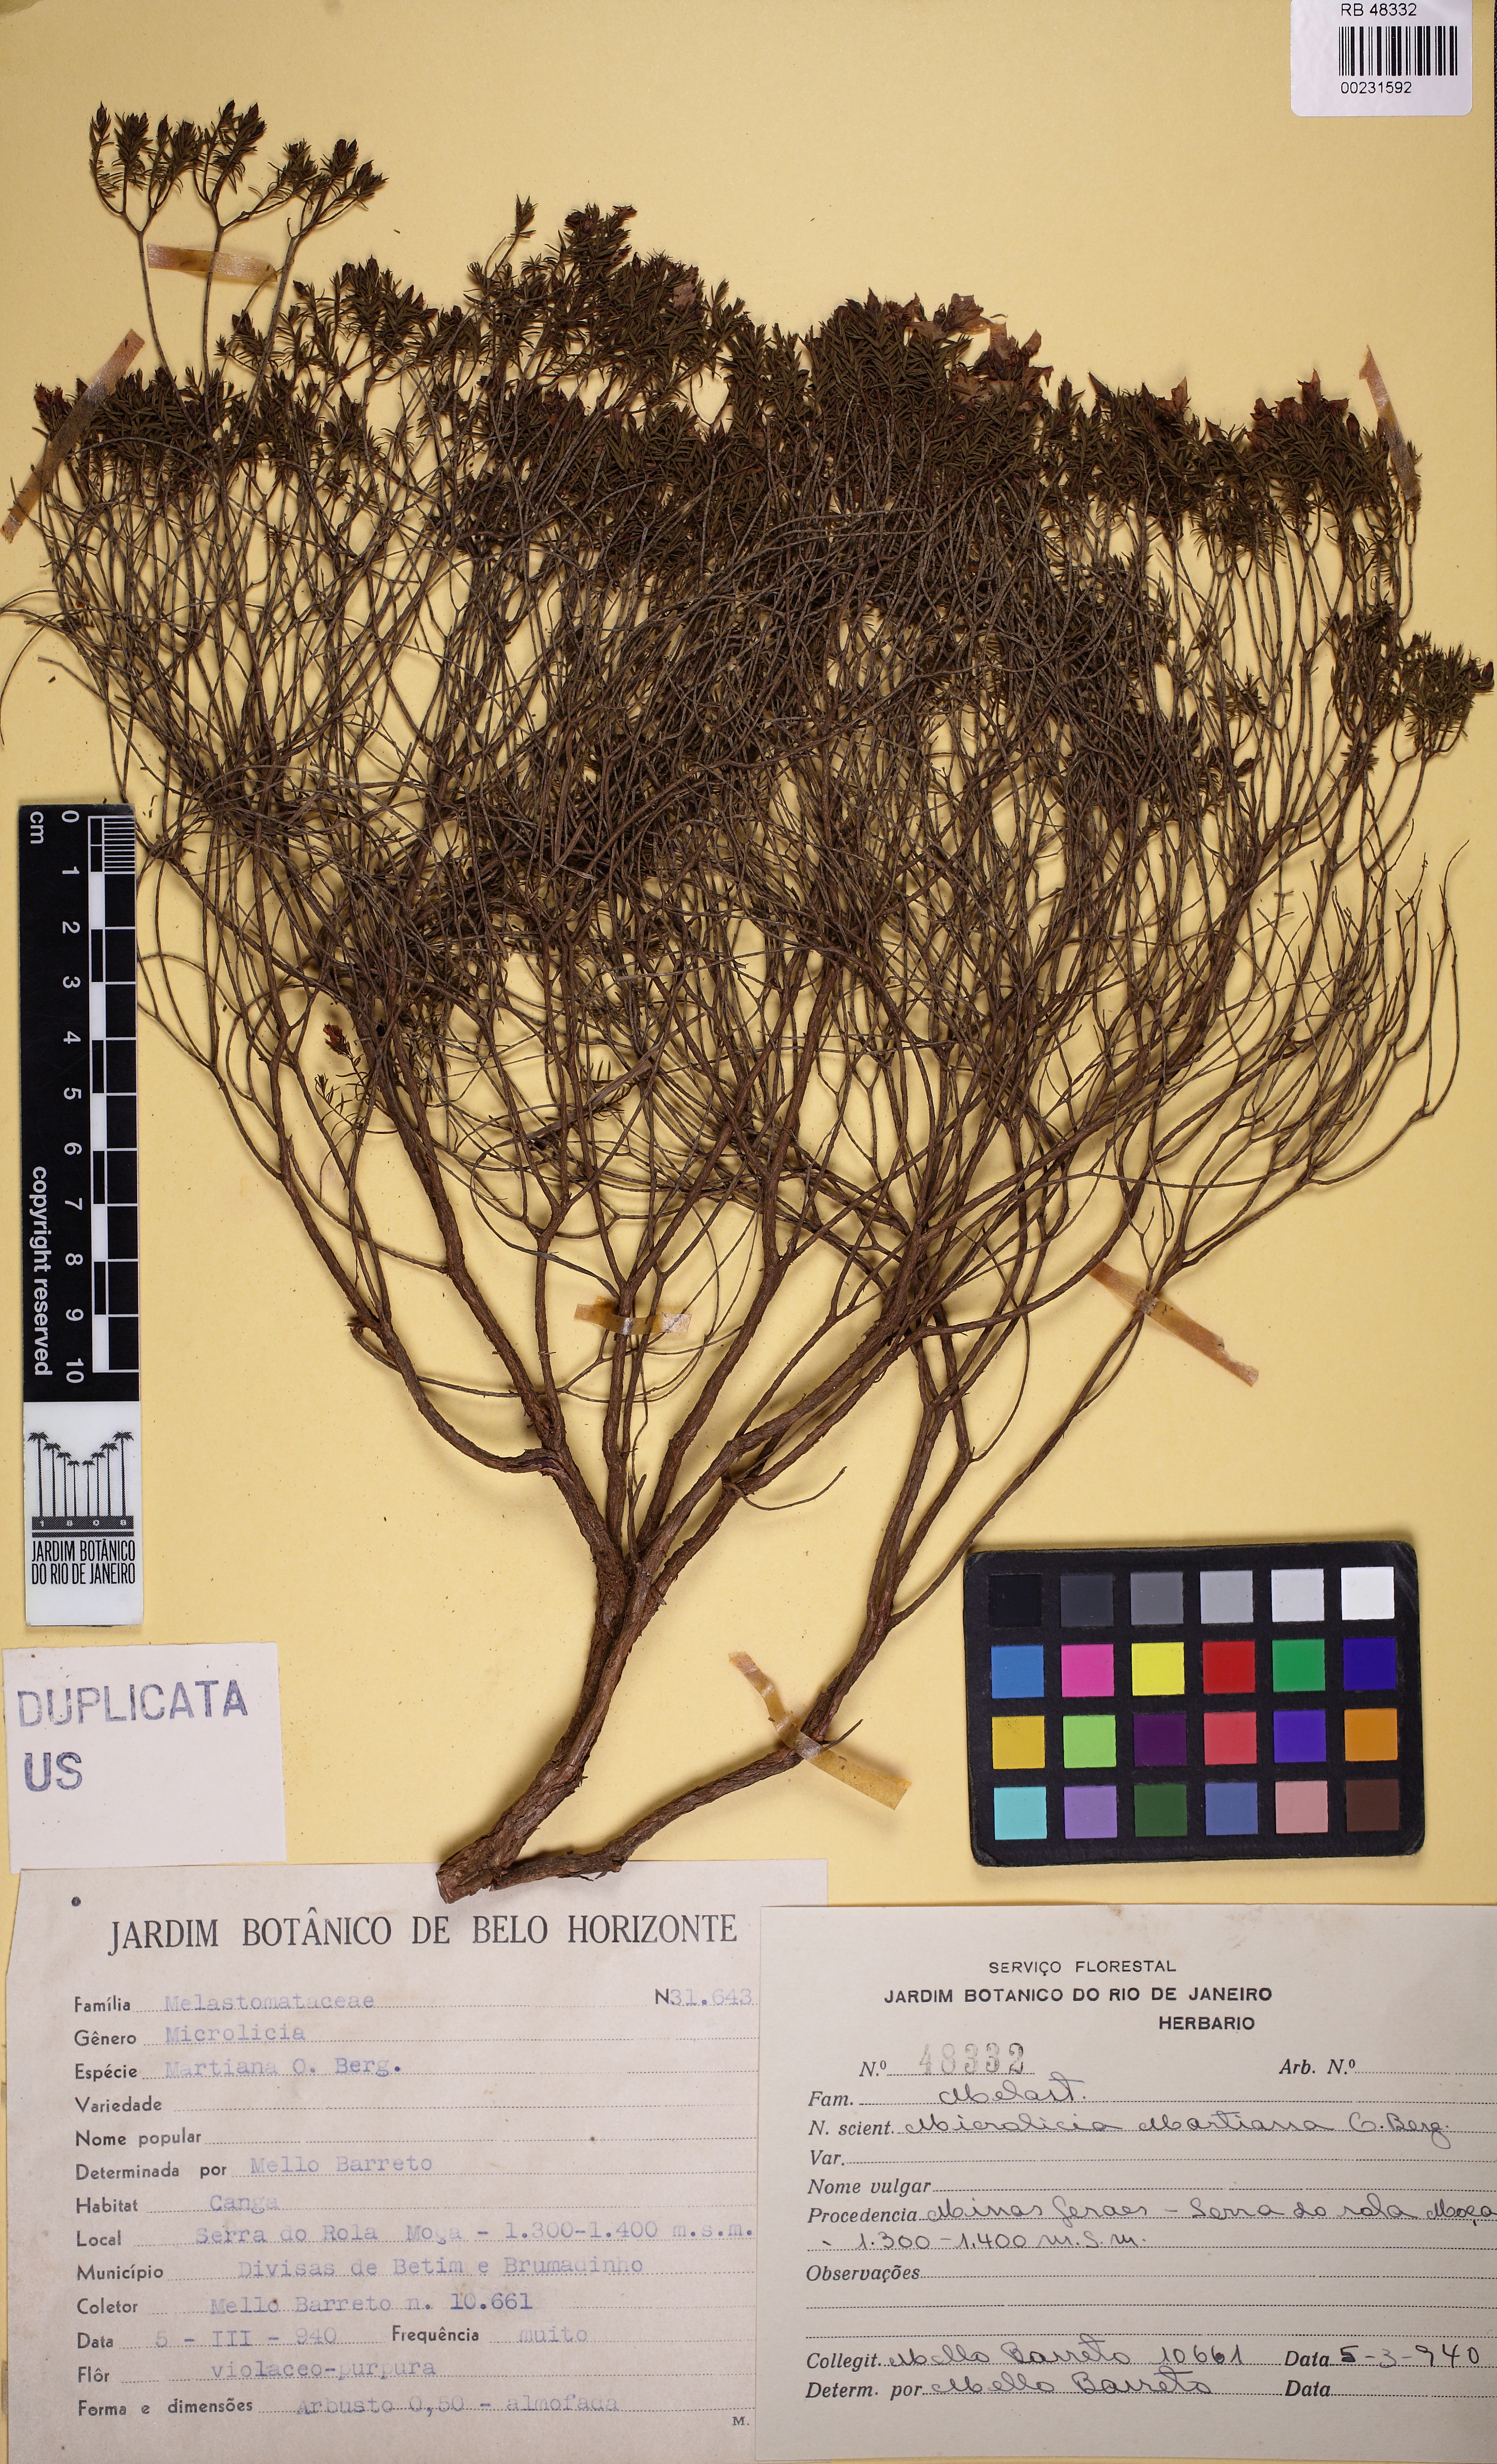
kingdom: Plantae
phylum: Tracheophyta
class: Magnoliopsida
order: Myrtales
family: Melastomataceae
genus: Microlicia
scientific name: Microlicia martiana
